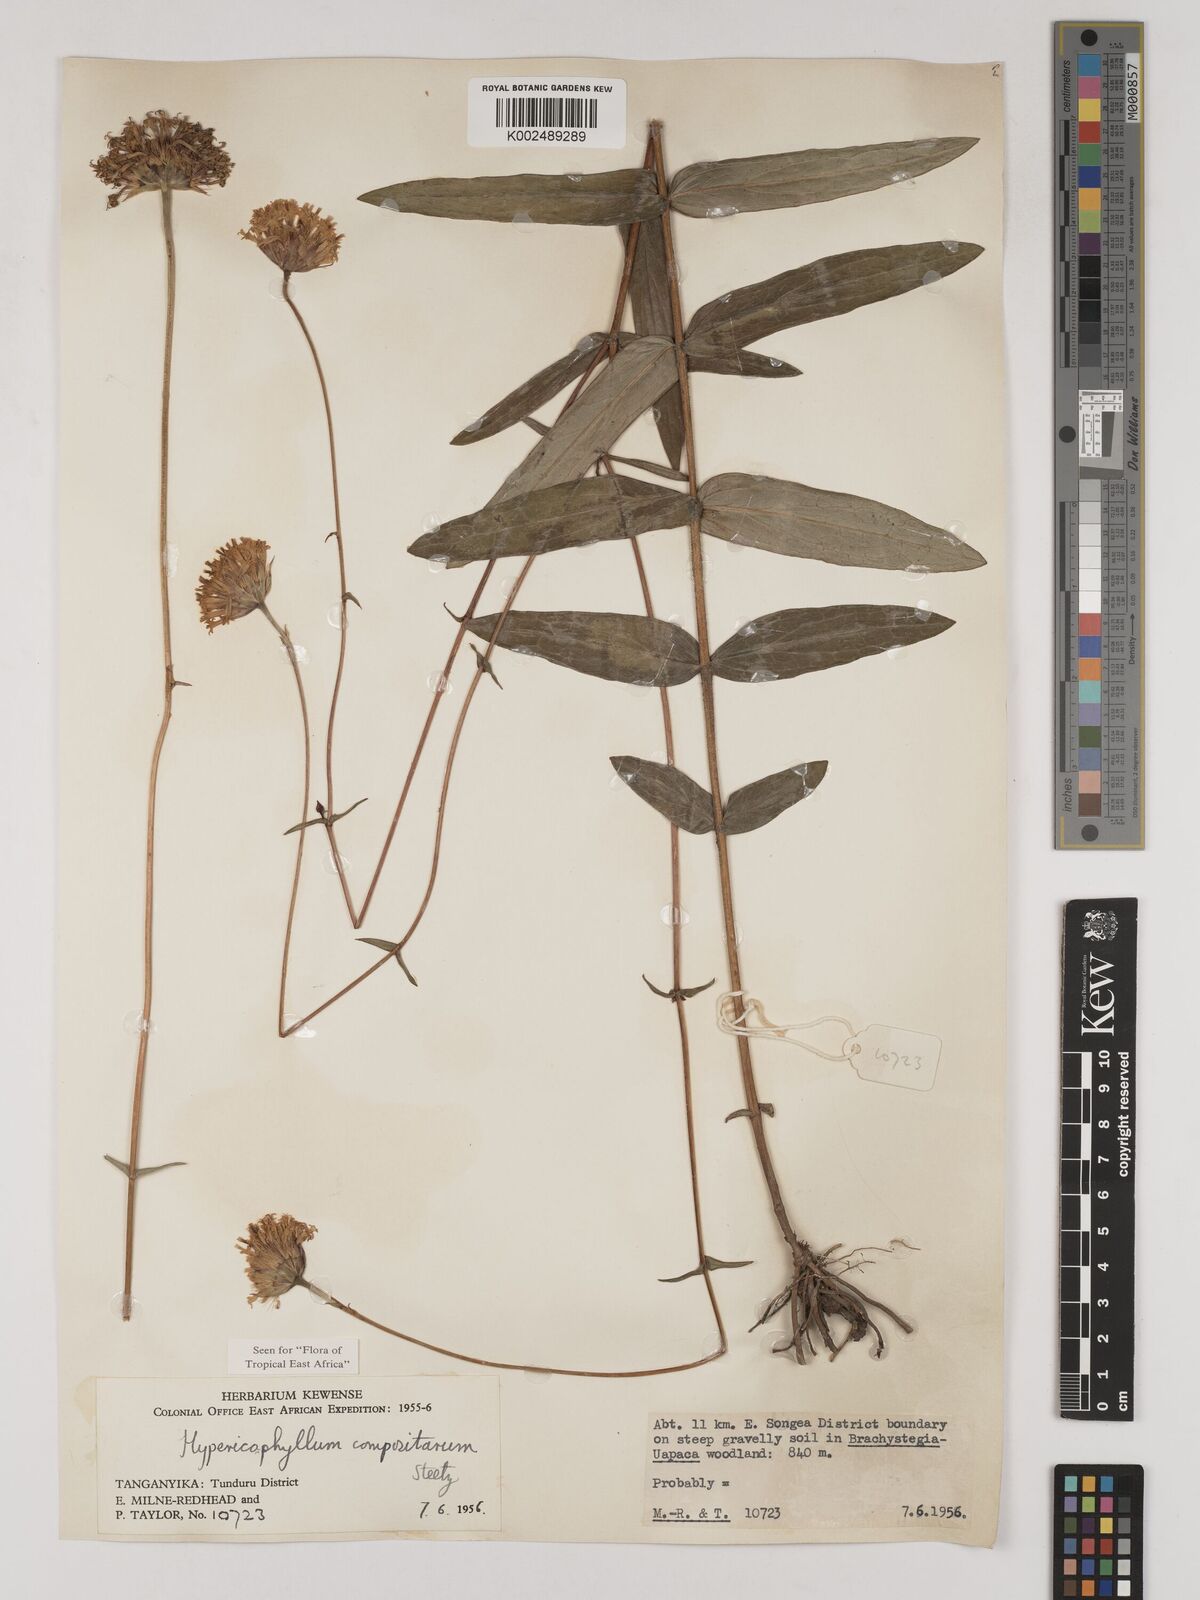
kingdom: Plantae
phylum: Tracheophyta
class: Magnoliopsida
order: Asterales
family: Asteraceae
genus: Hypericophyllum
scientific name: Hypericophyllum compositarum
